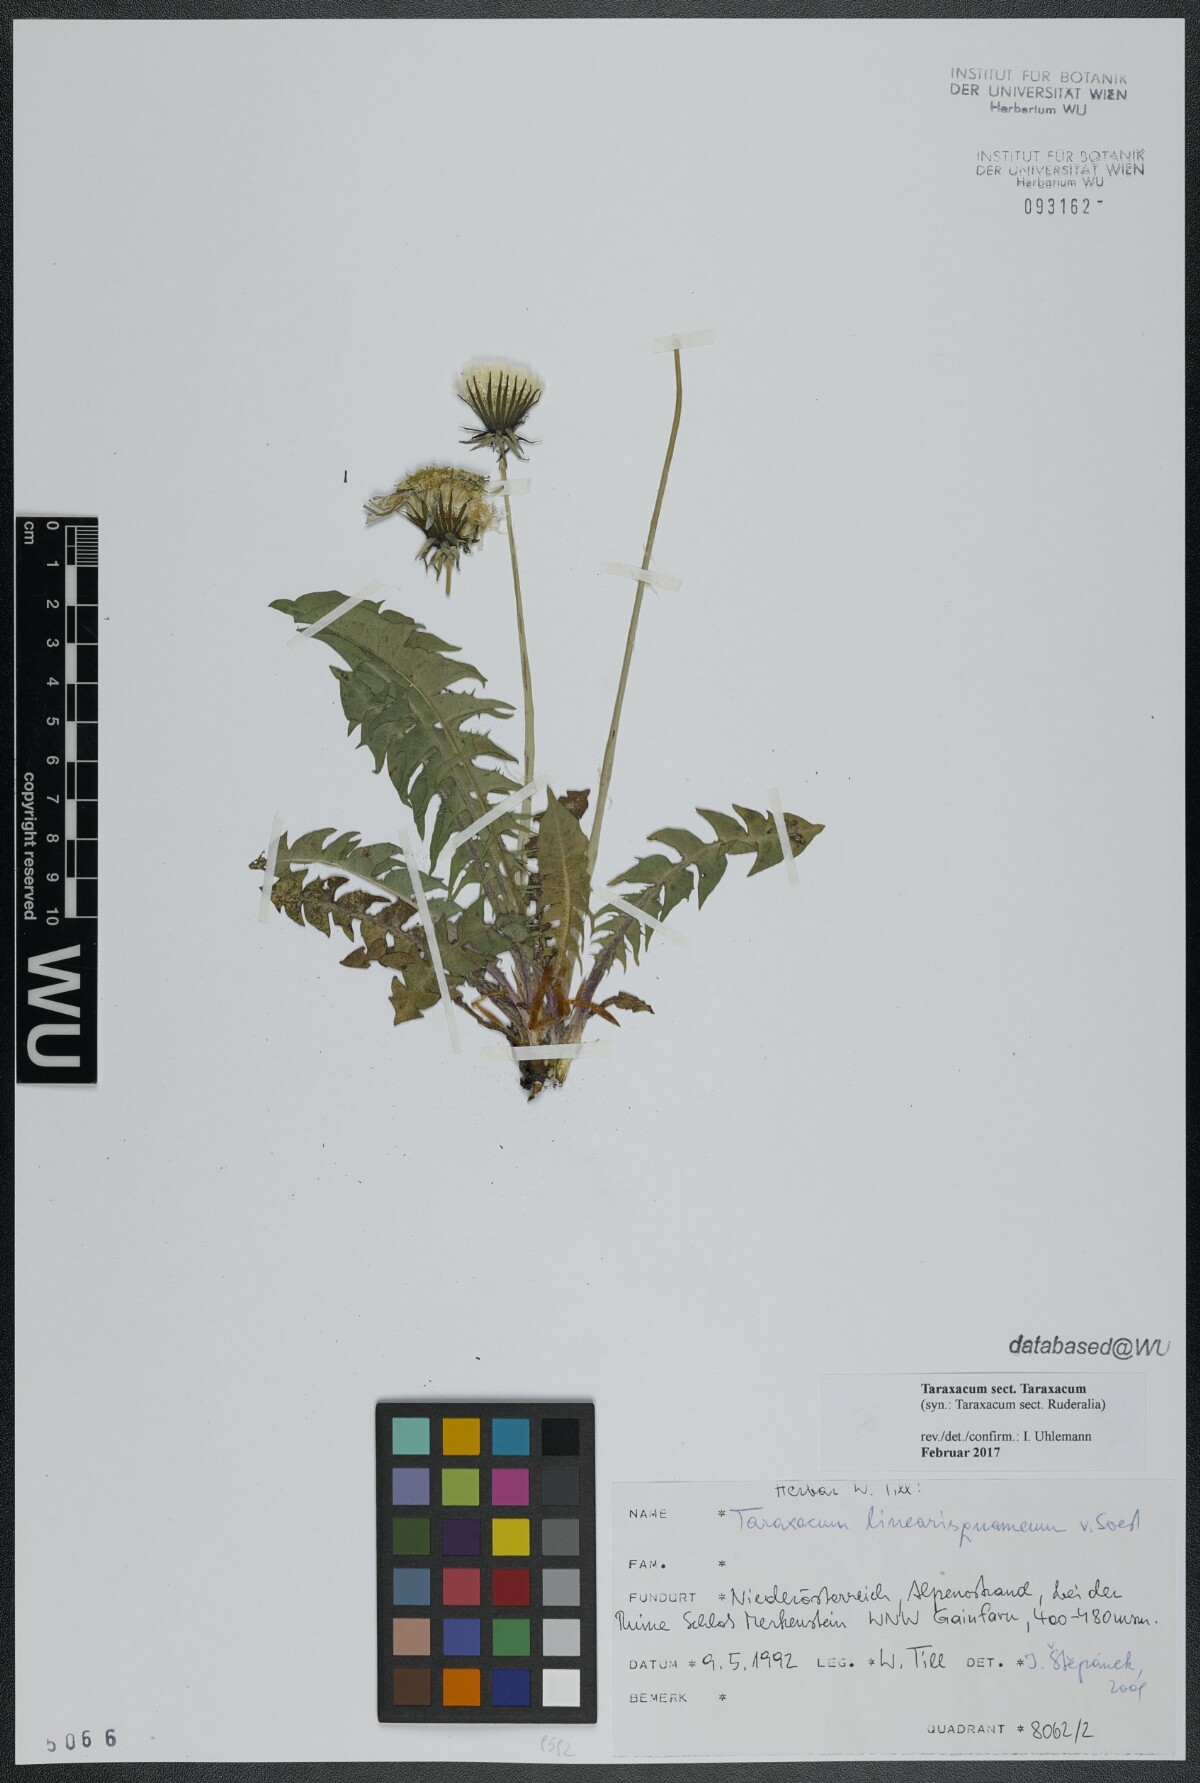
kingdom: Plantae
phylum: Tracheophyta
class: Magnoliopsida
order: Asterales
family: Asteraceae
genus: Taraxacum
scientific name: Taraxacum
